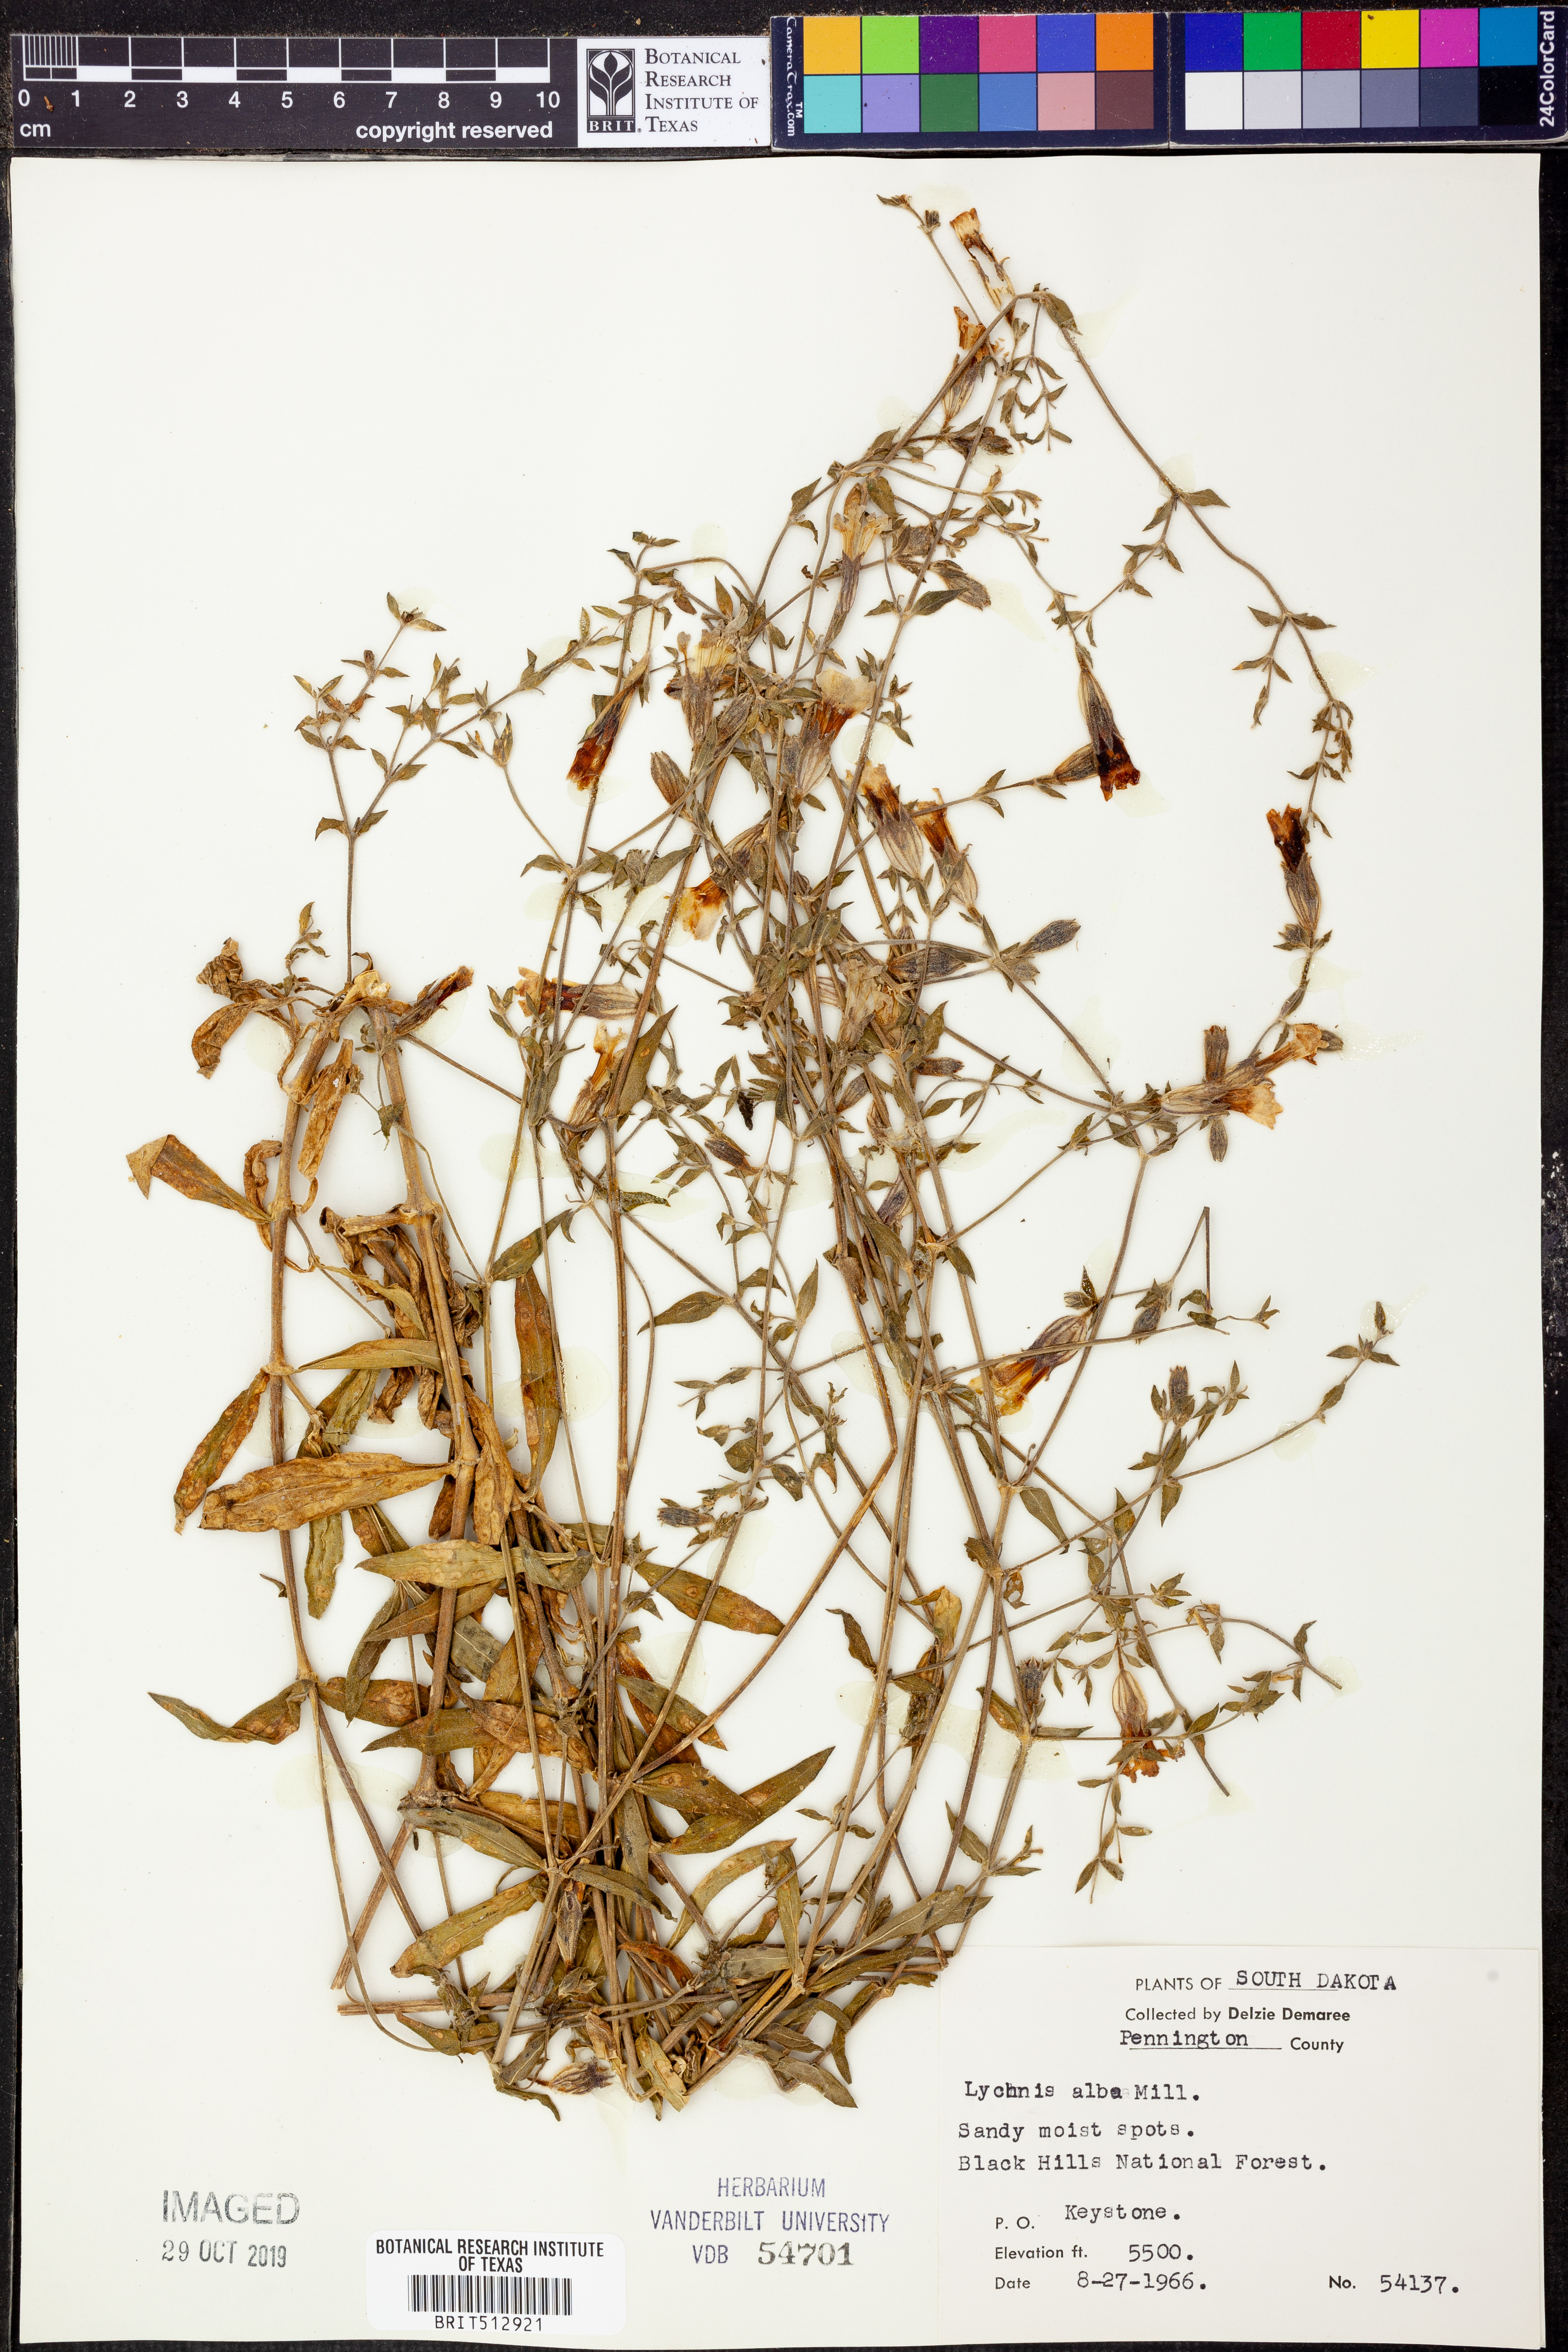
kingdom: Plantae
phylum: Tracheophyta
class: Magnoliopsida
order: Caryophyllales
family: Caryophyllaceae
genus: Silene
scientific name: Silene latifolia
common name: White campion
